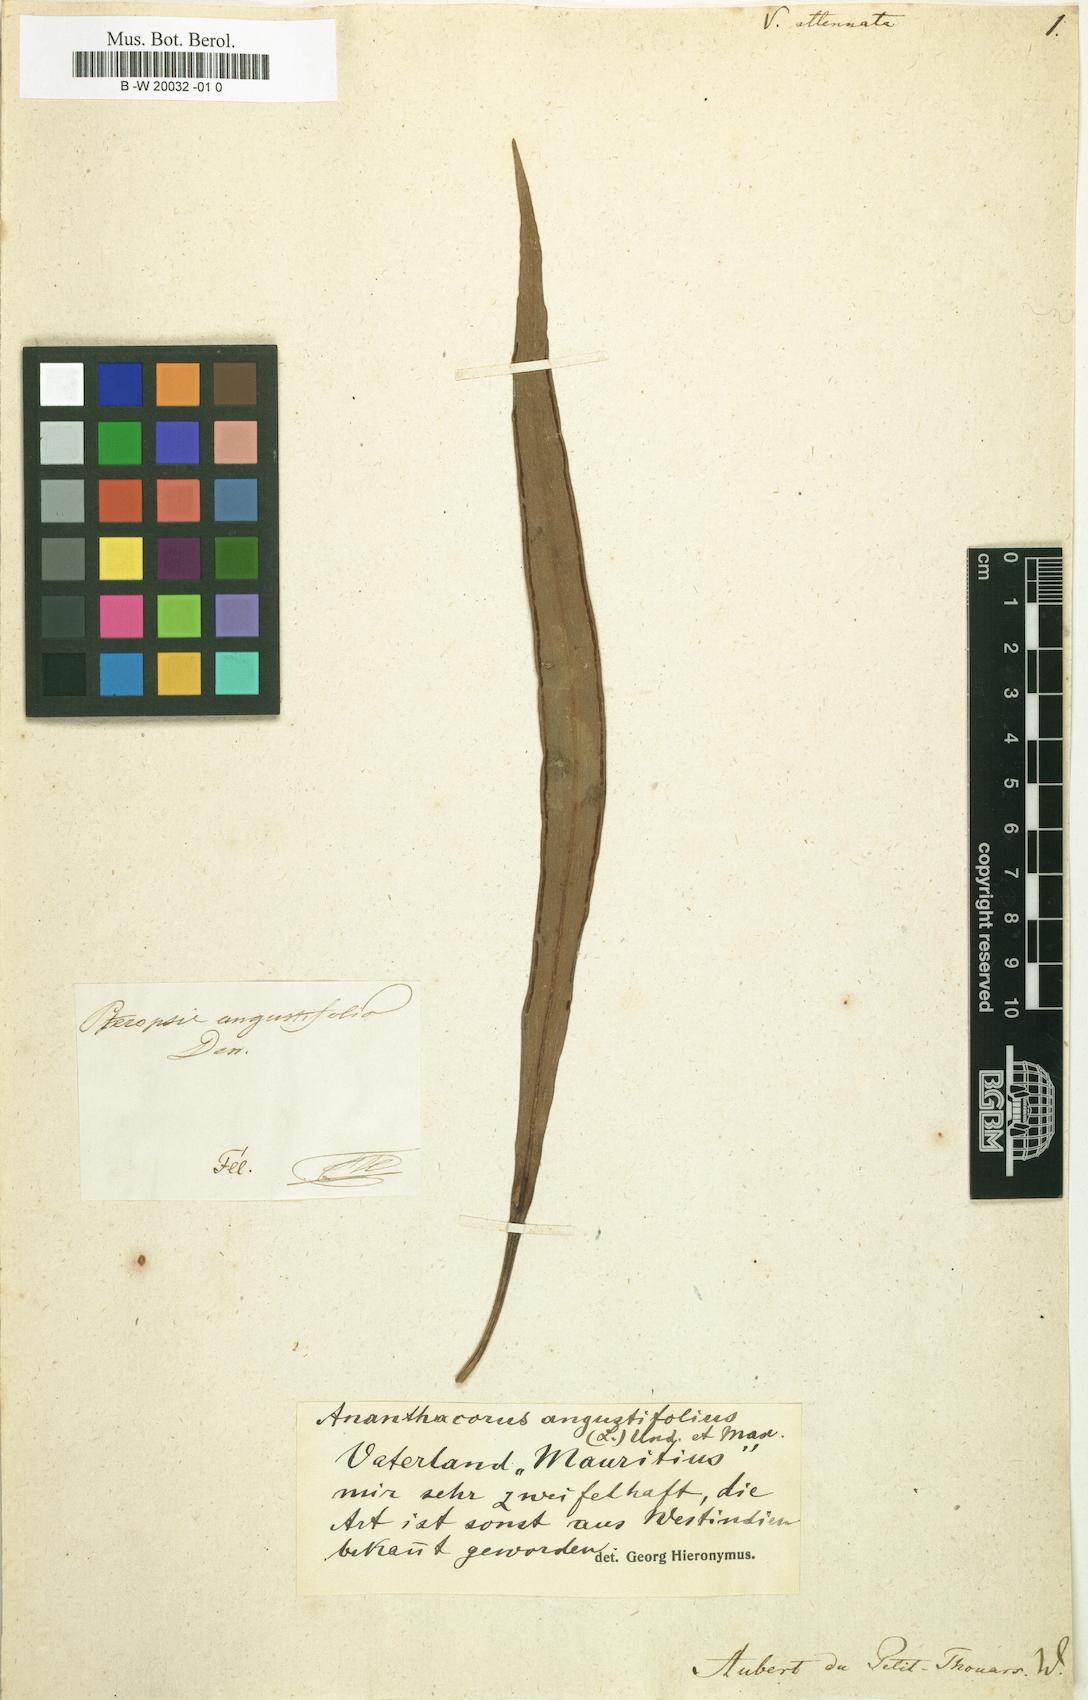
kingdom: Plantae
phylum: Tracheophyta
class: Polypodiopsida
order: Polypodiales
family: Pteridaceae
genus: Vittaria
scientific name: Vittaria
